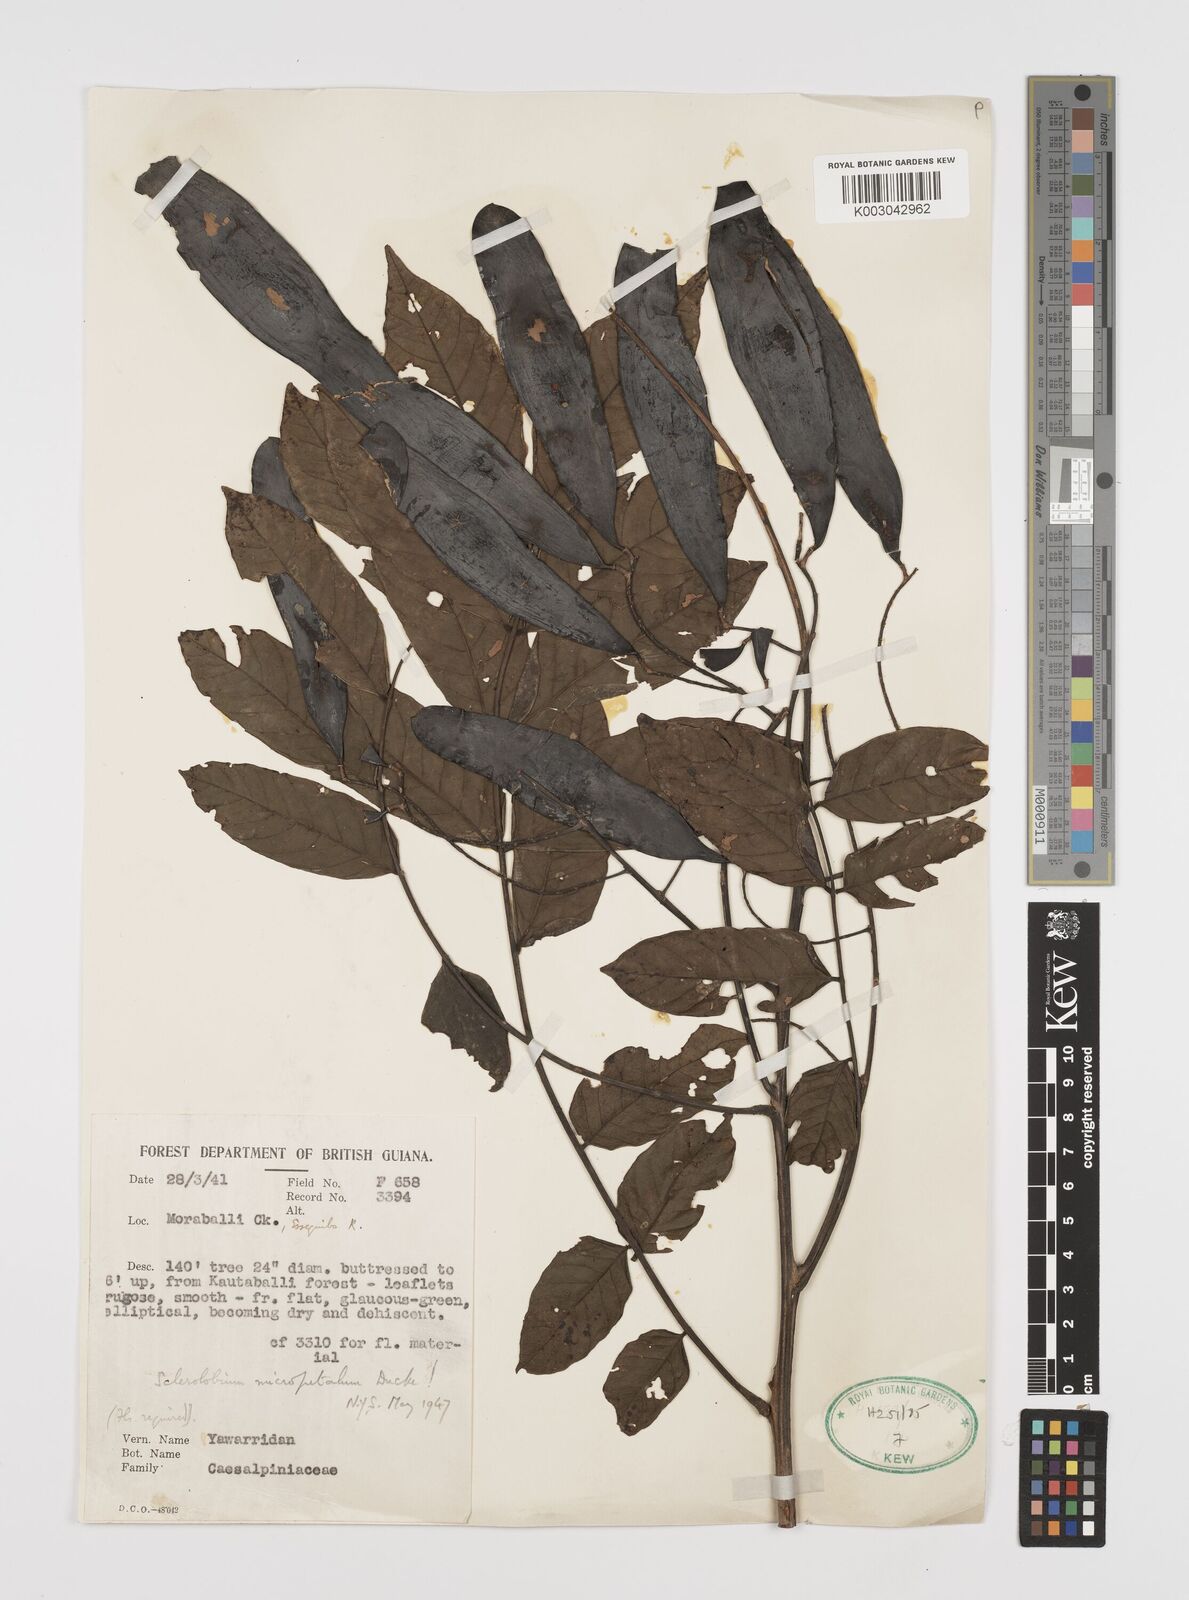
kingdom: Plantae
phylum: Tracheophyta
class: Magnoliopsida
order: Fabales
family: Fabaceae
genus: Tachigali
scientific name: Tachigali micropetala
